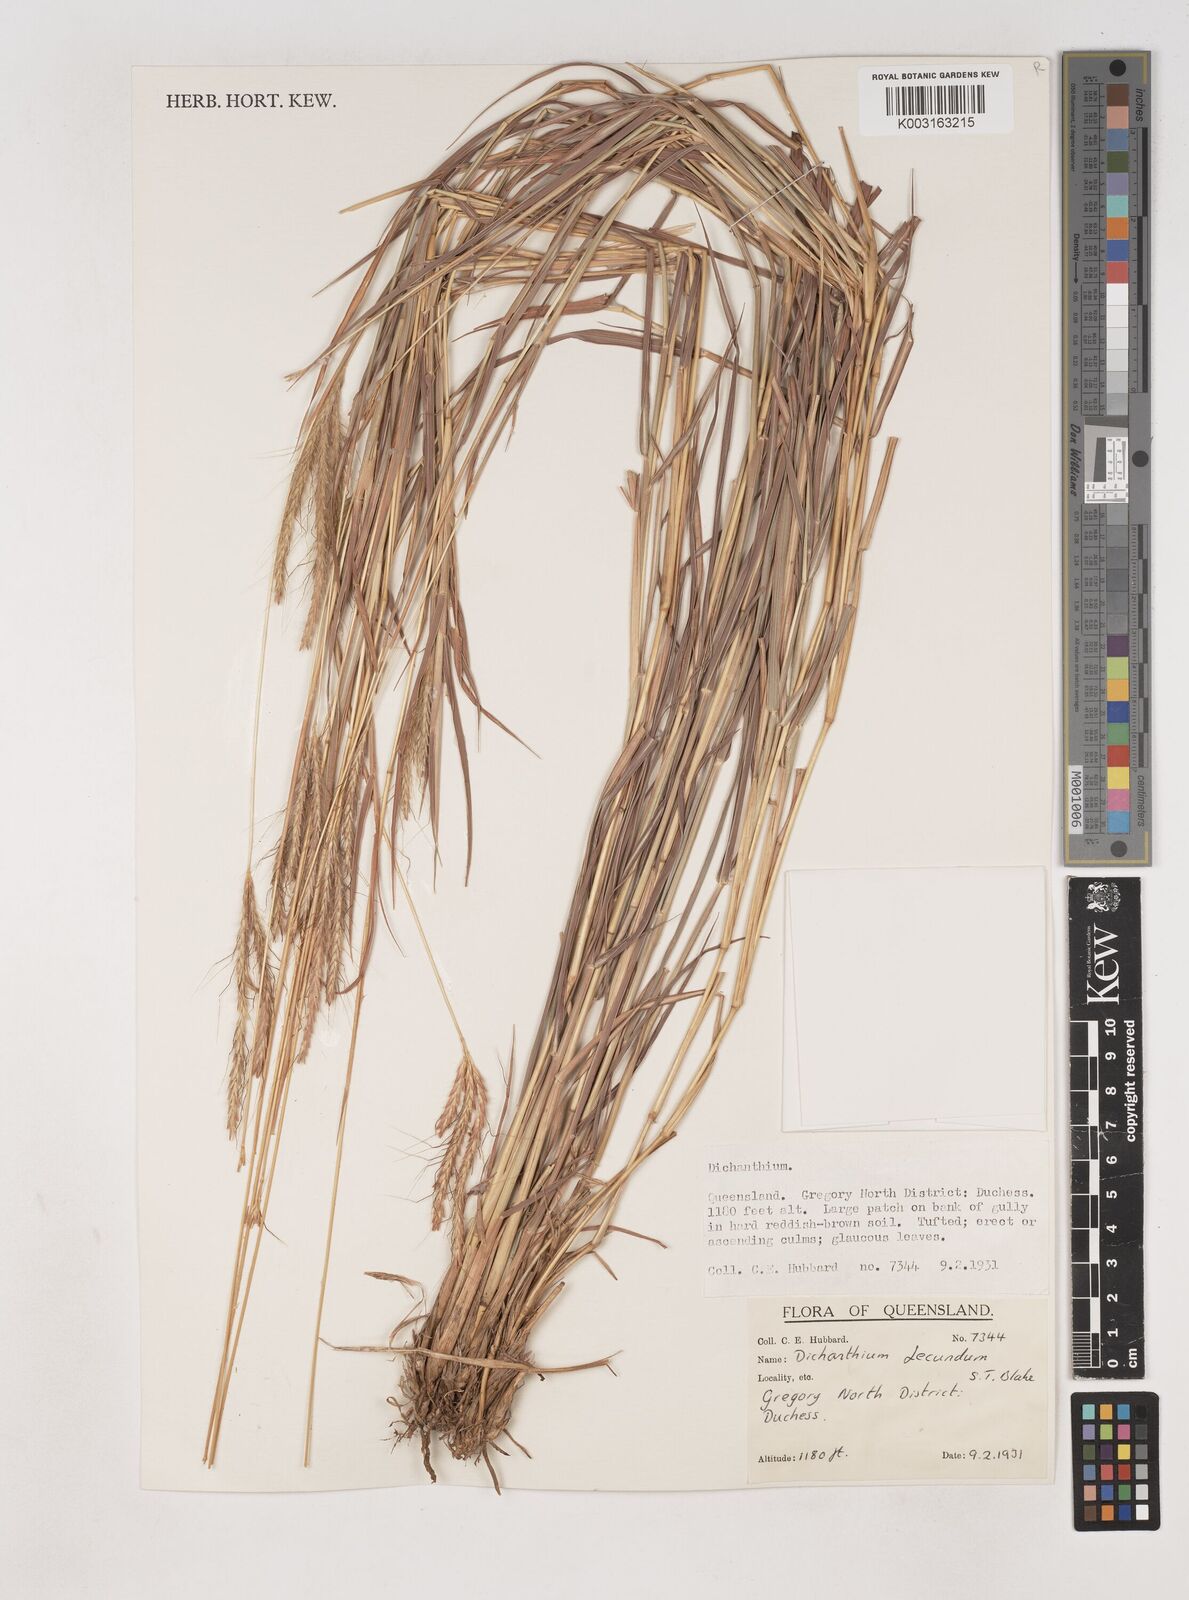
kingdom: Plantae
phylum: Tracheophyta
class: Liliopsida
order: Poales
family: Poaceae
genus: Dichanthium
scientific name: Dichanthium fecundum
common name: Bundle-bundle
